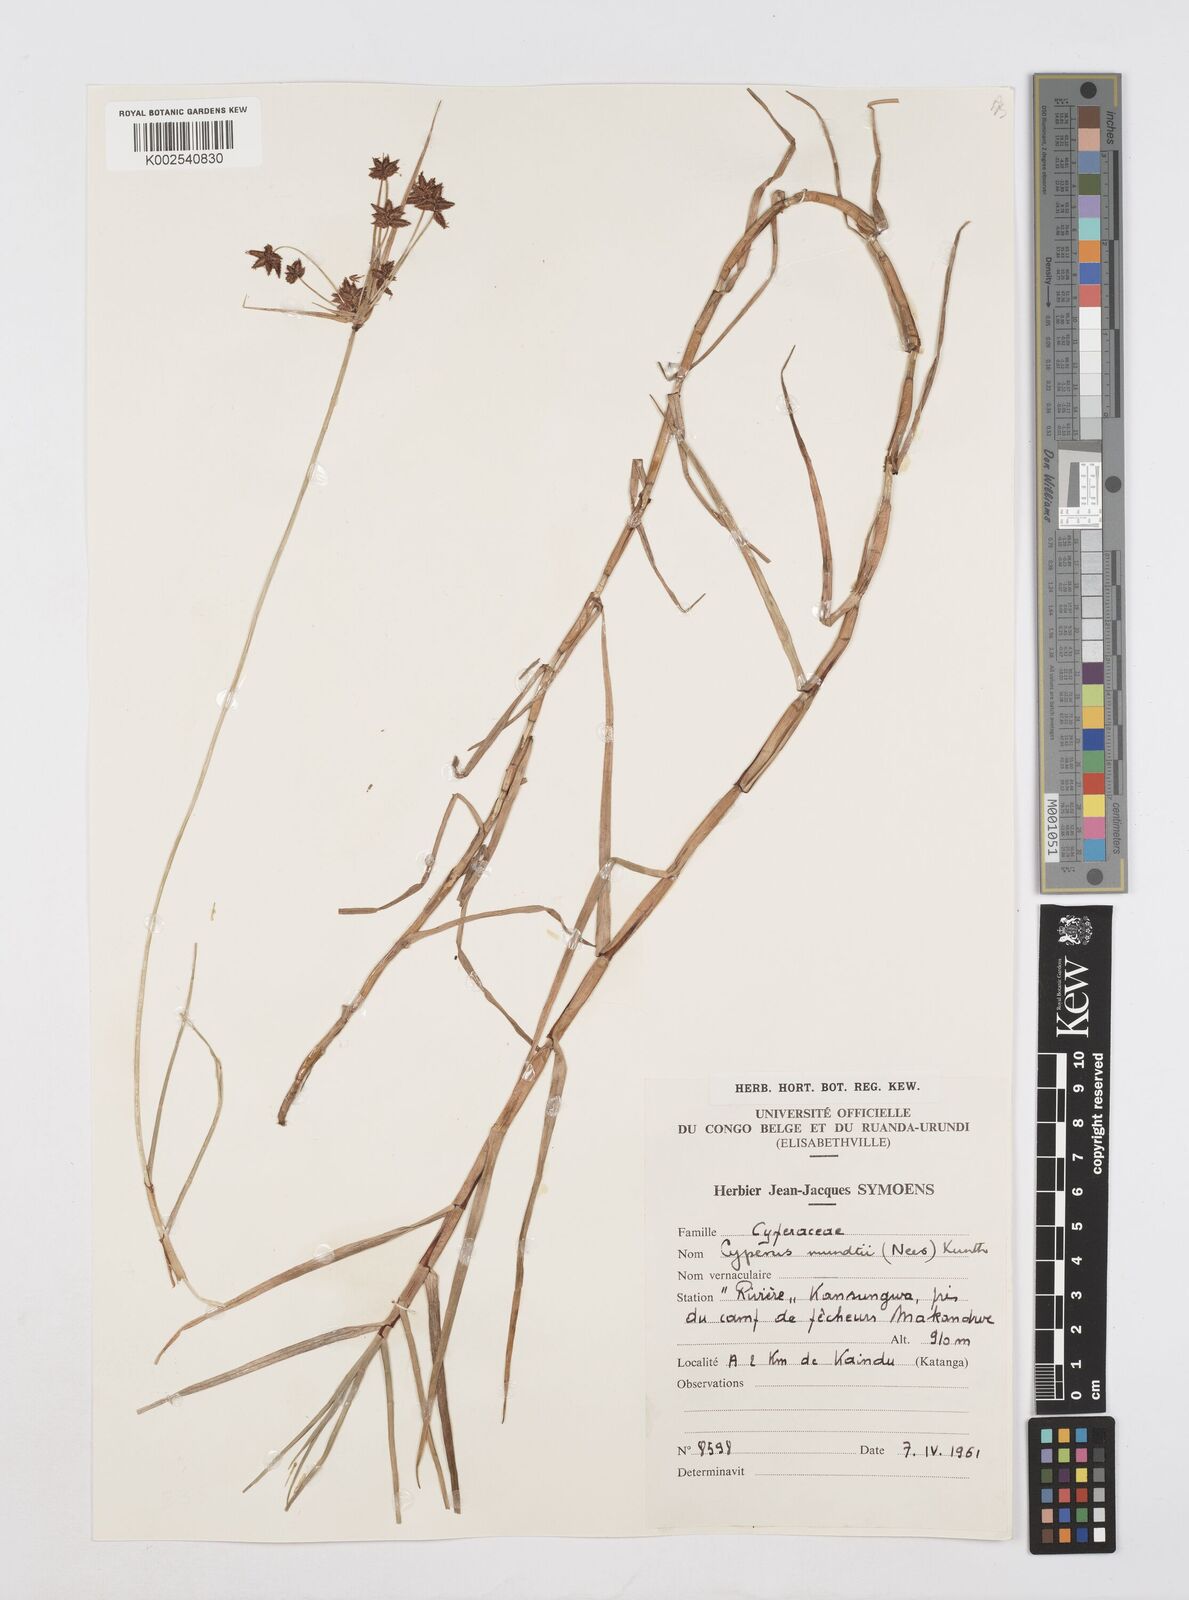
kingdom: Plantae
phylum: Tracheophyta
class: Liliopsida
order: Poales
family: Cyperaceae
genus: Cyperus
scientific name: Cyperus mundii
